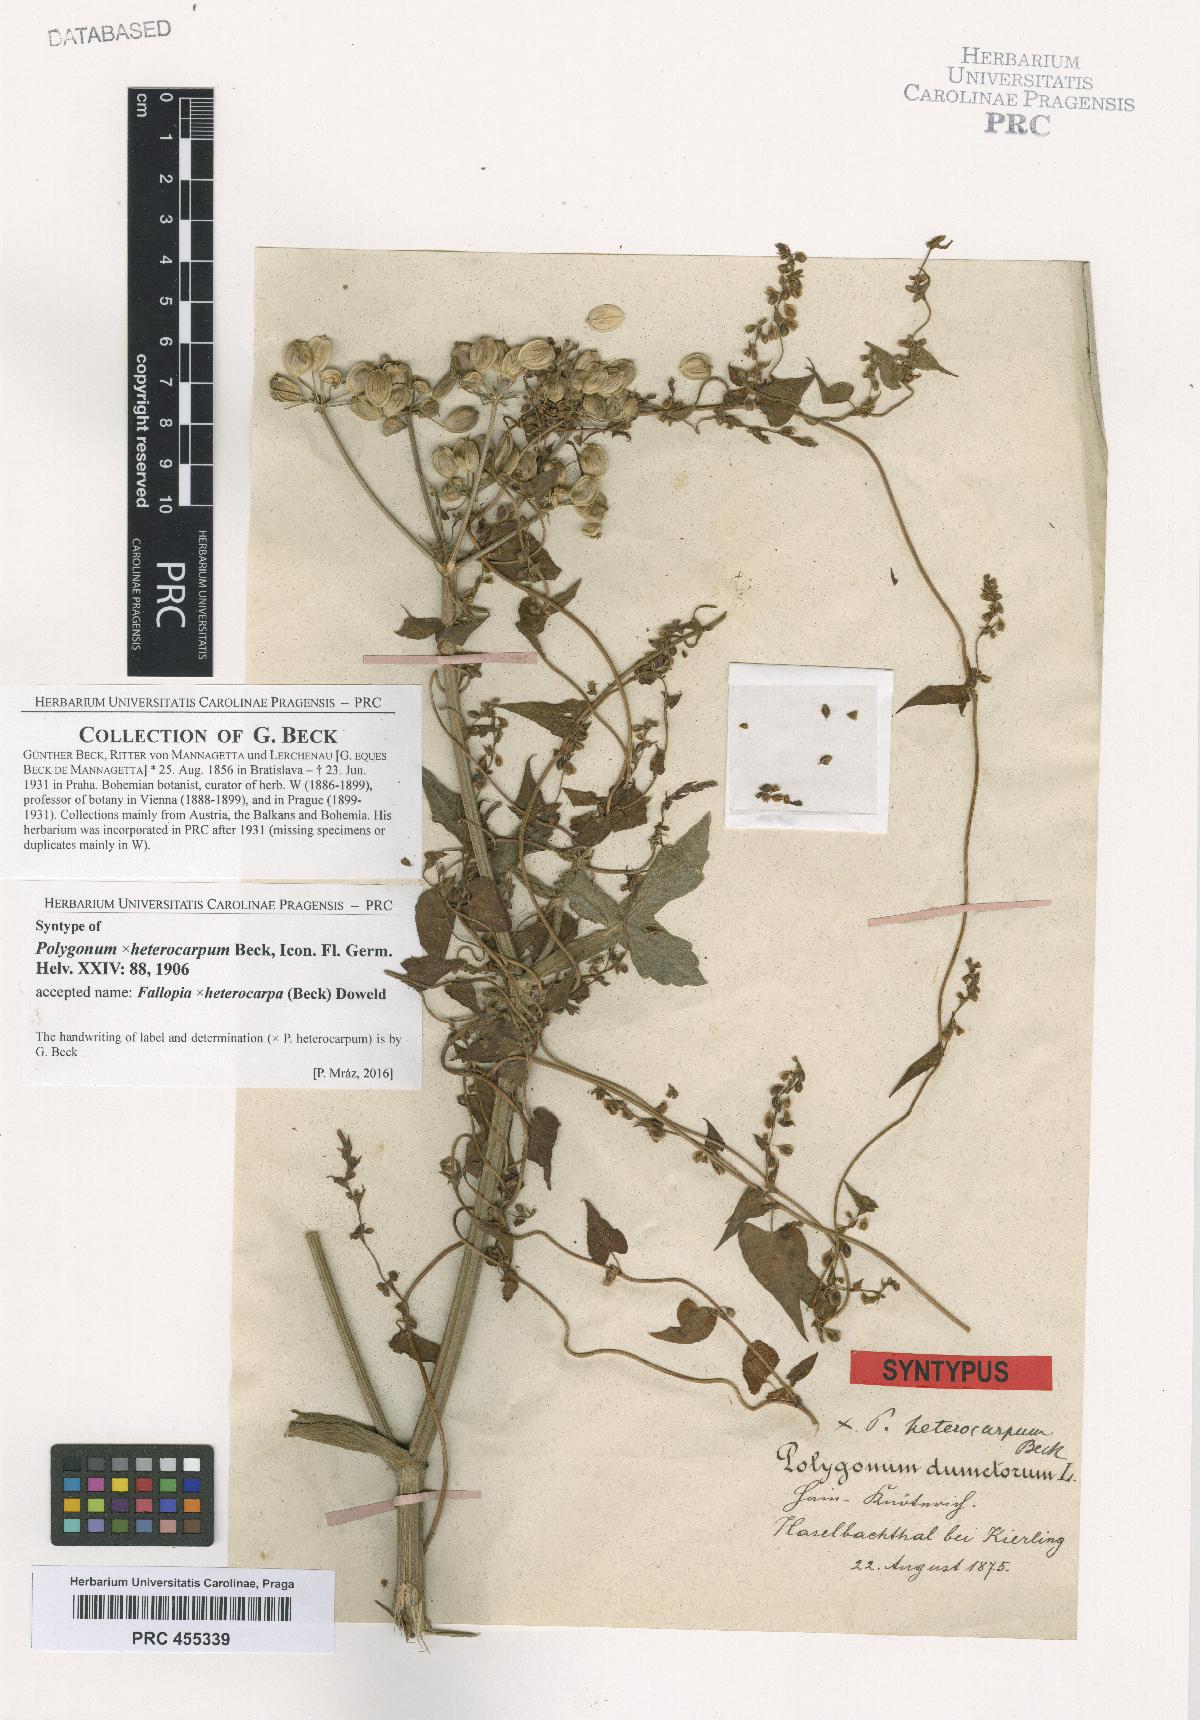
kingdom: Plantae
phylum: Tracheophyta
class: Magnoliopsida
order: Caryophyllales
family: Polygonaceae
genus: Fallopia
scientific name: Fallopia heterocarpa
